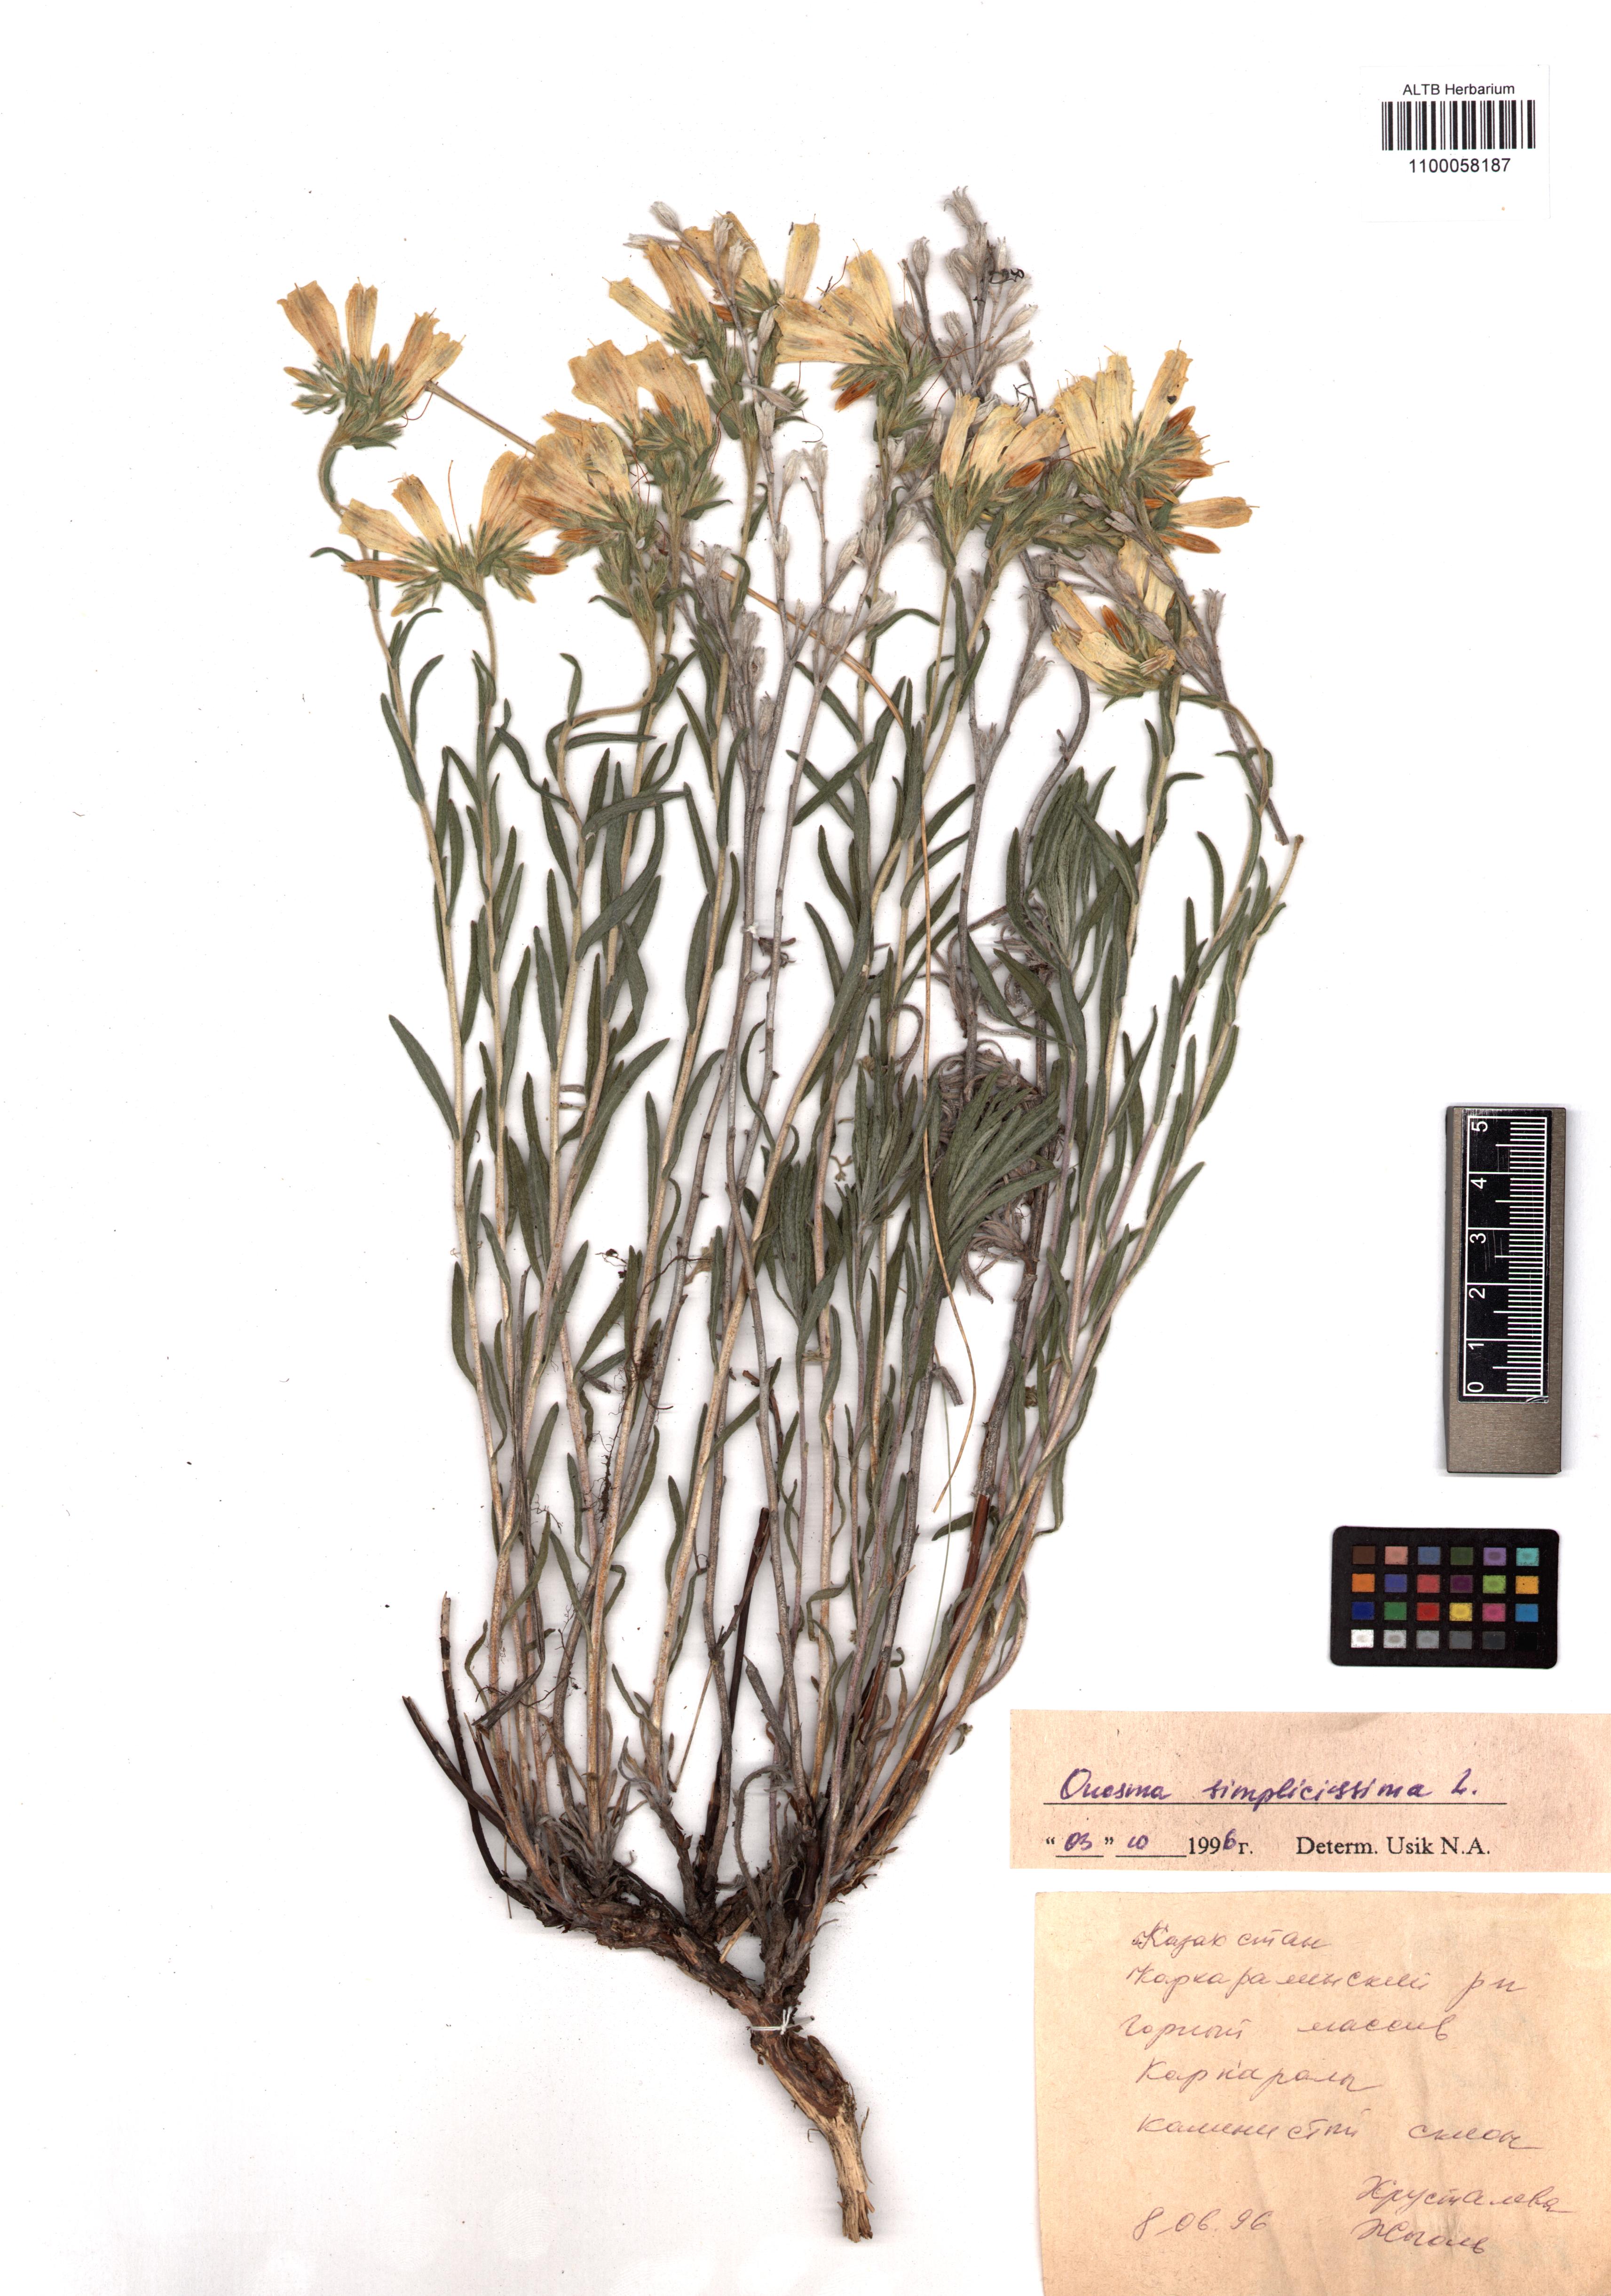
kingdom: Plantae
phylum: Tracheophyta
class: Magnoliopsida
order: Boraginales
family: Boraginaceae
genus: Onosma
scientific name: Onosma simplicissima
